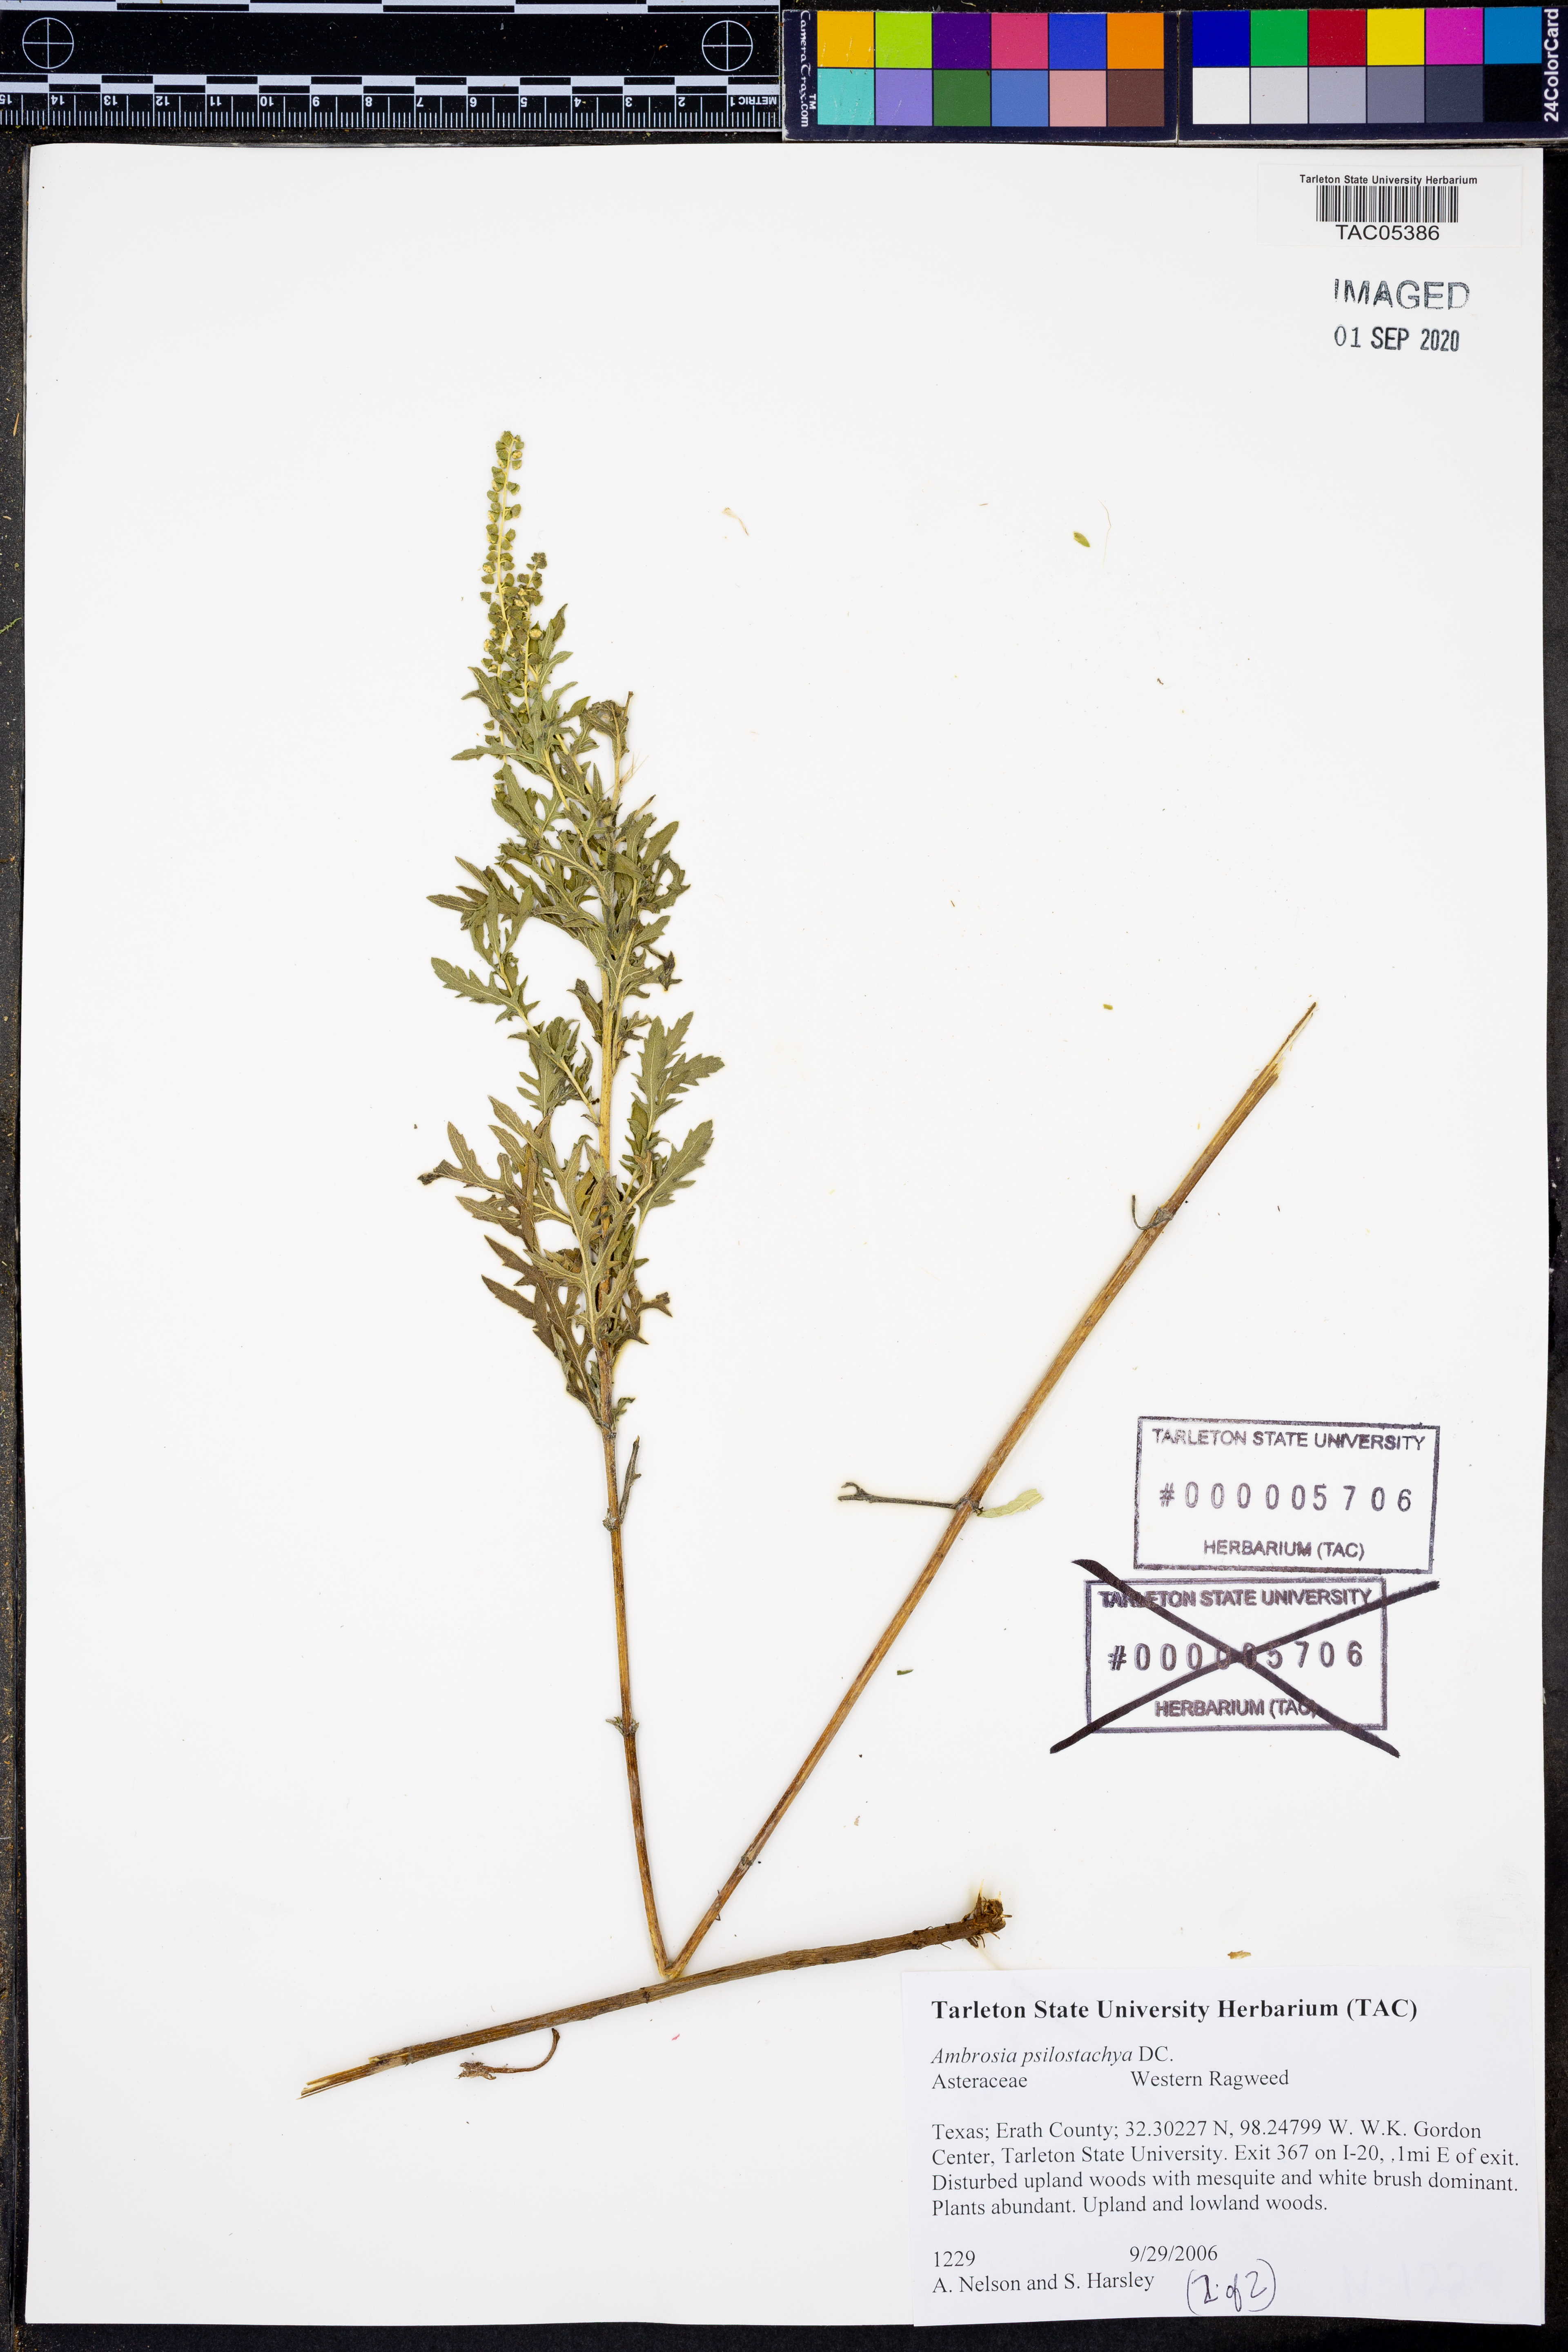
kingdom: Plantae
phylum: Tracheophyta
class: Magnoliopsida
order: Asterales
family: Asteraceae
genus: Ambrosia
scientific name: Ambrosia psilostachya
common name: Perennial ragweed
